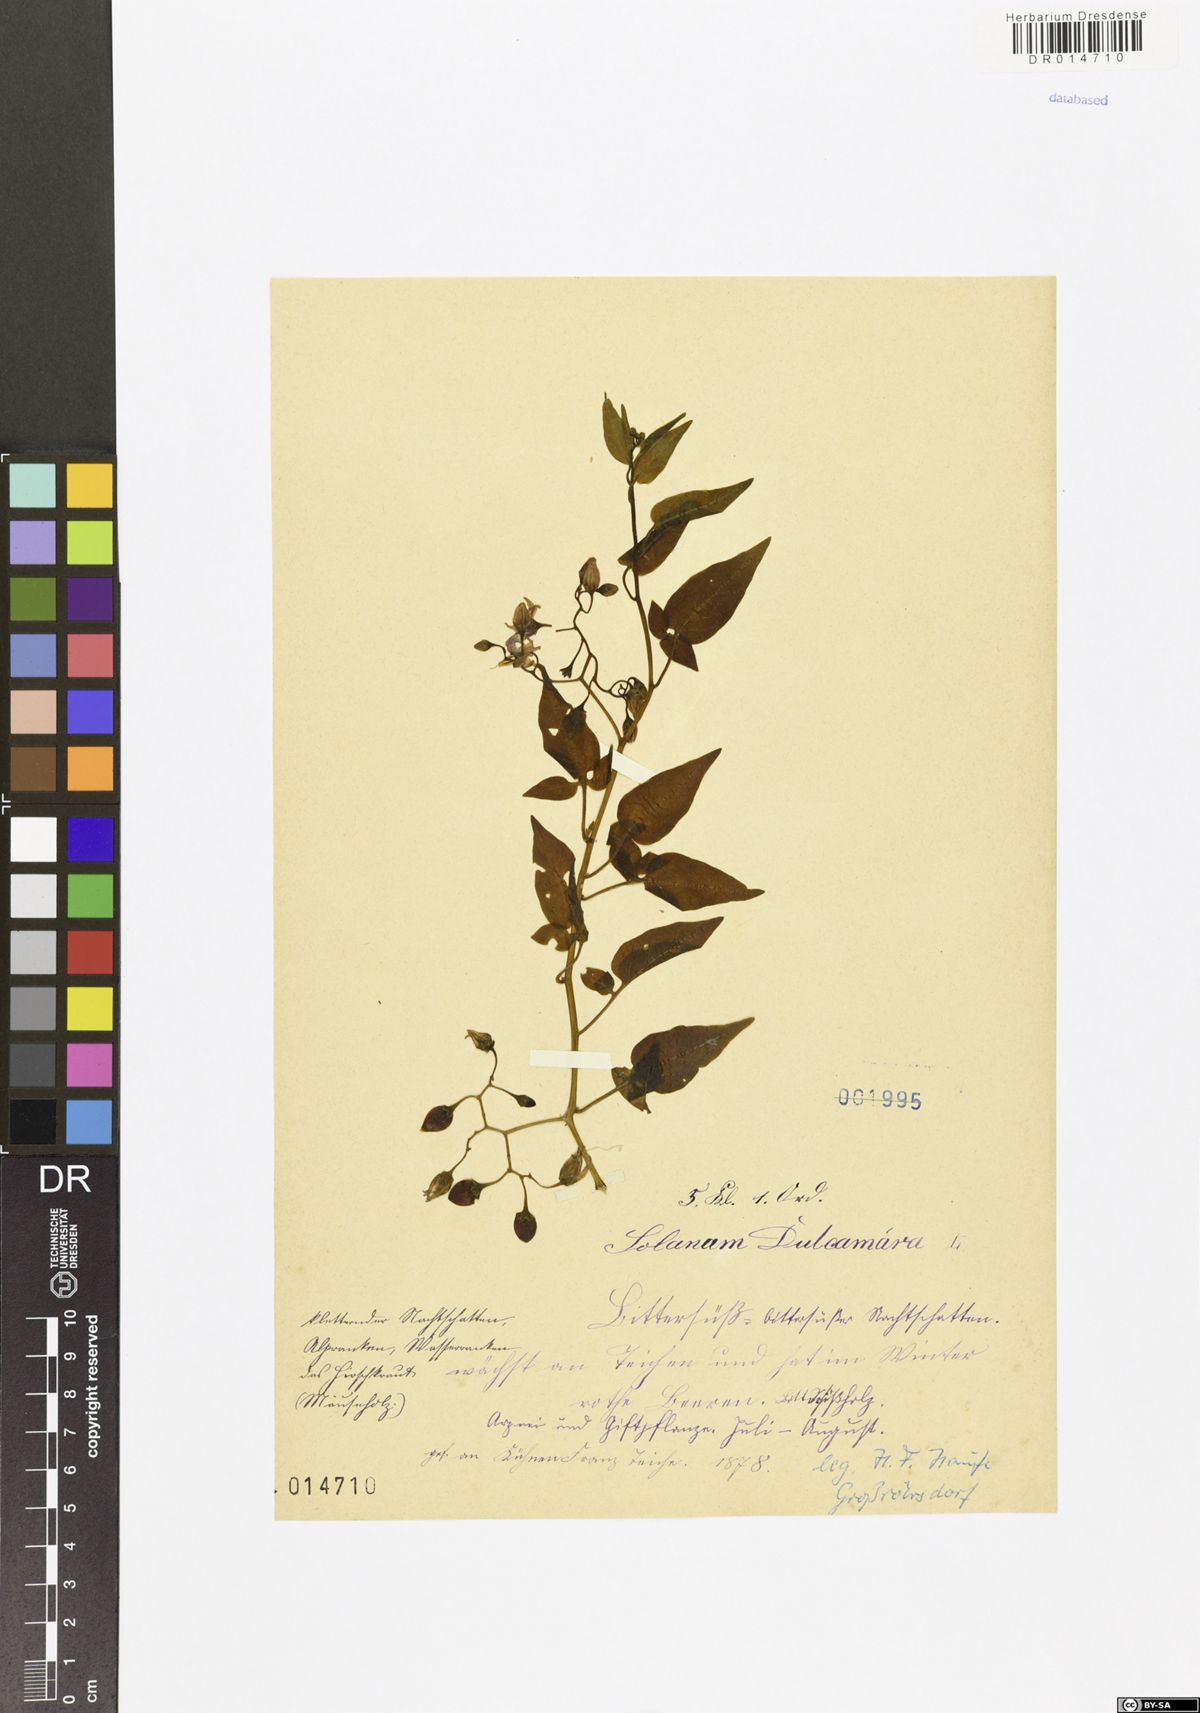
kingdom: Plantae
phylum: Tracheophyta
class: Magnoliopsida
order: Solanales
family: Solanaceae
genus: Solanum
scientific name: Solanum dulcamara
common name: Climbing nightshade
